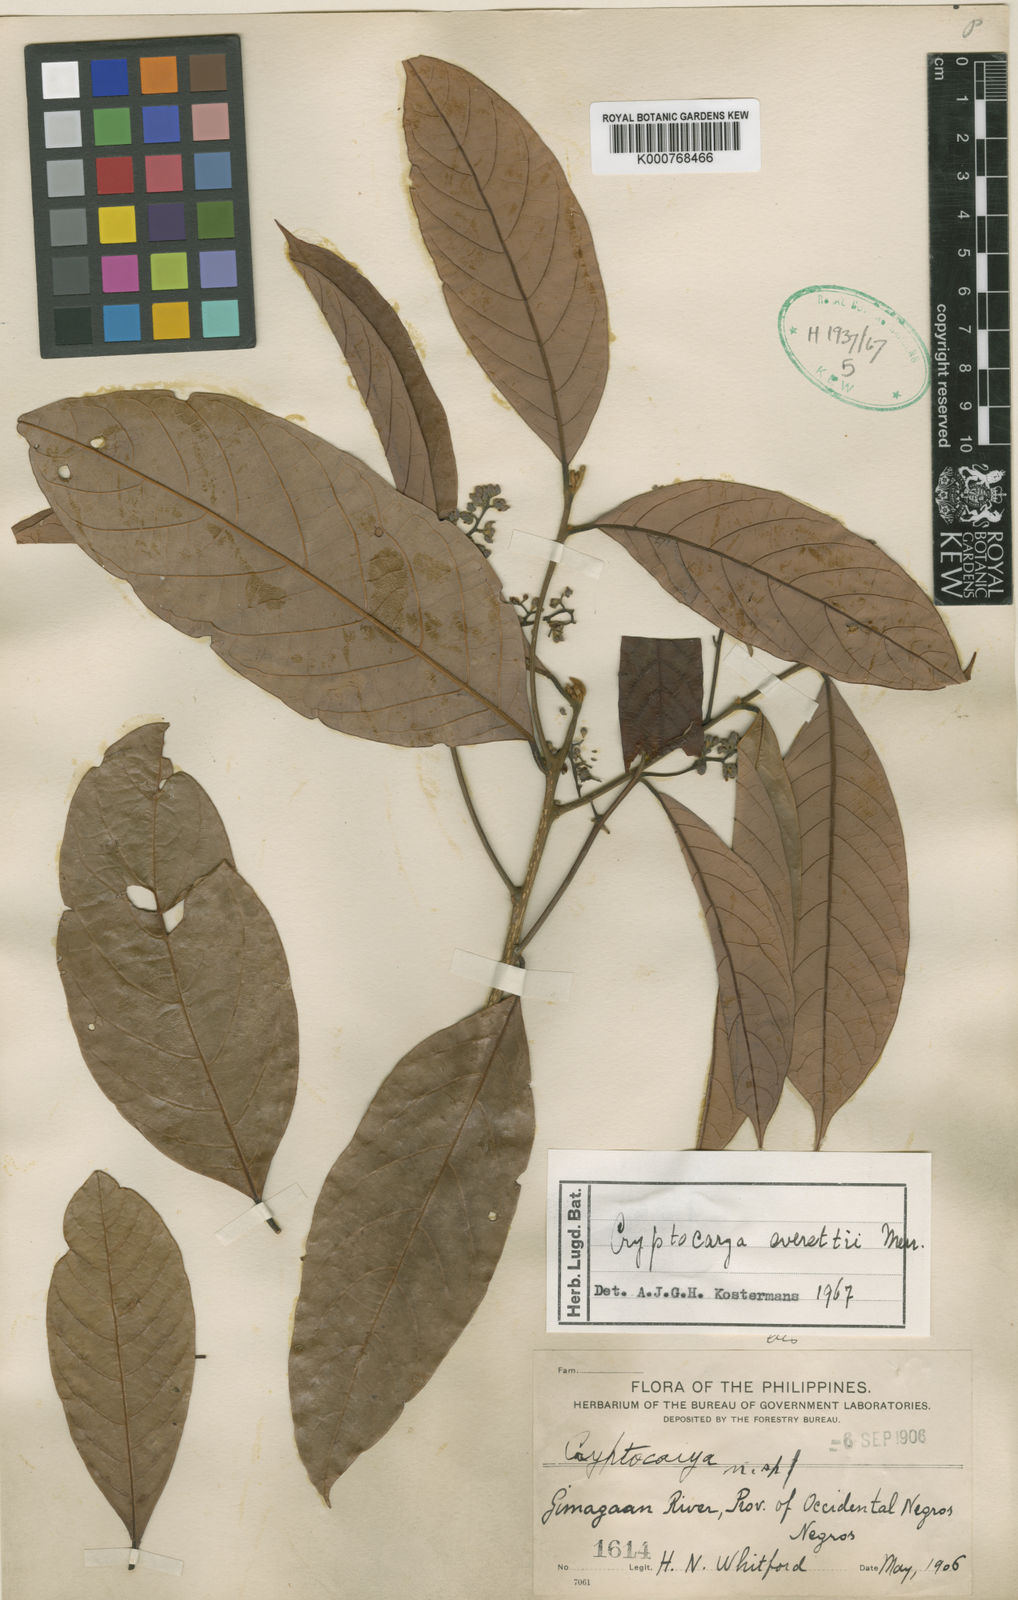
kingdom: Plantae
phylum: Tracheophyta
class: Magnoliopsida
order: Laurales
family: Lauraceae
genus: Cryptocarya
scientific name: Cryptocarya teysmanniana
